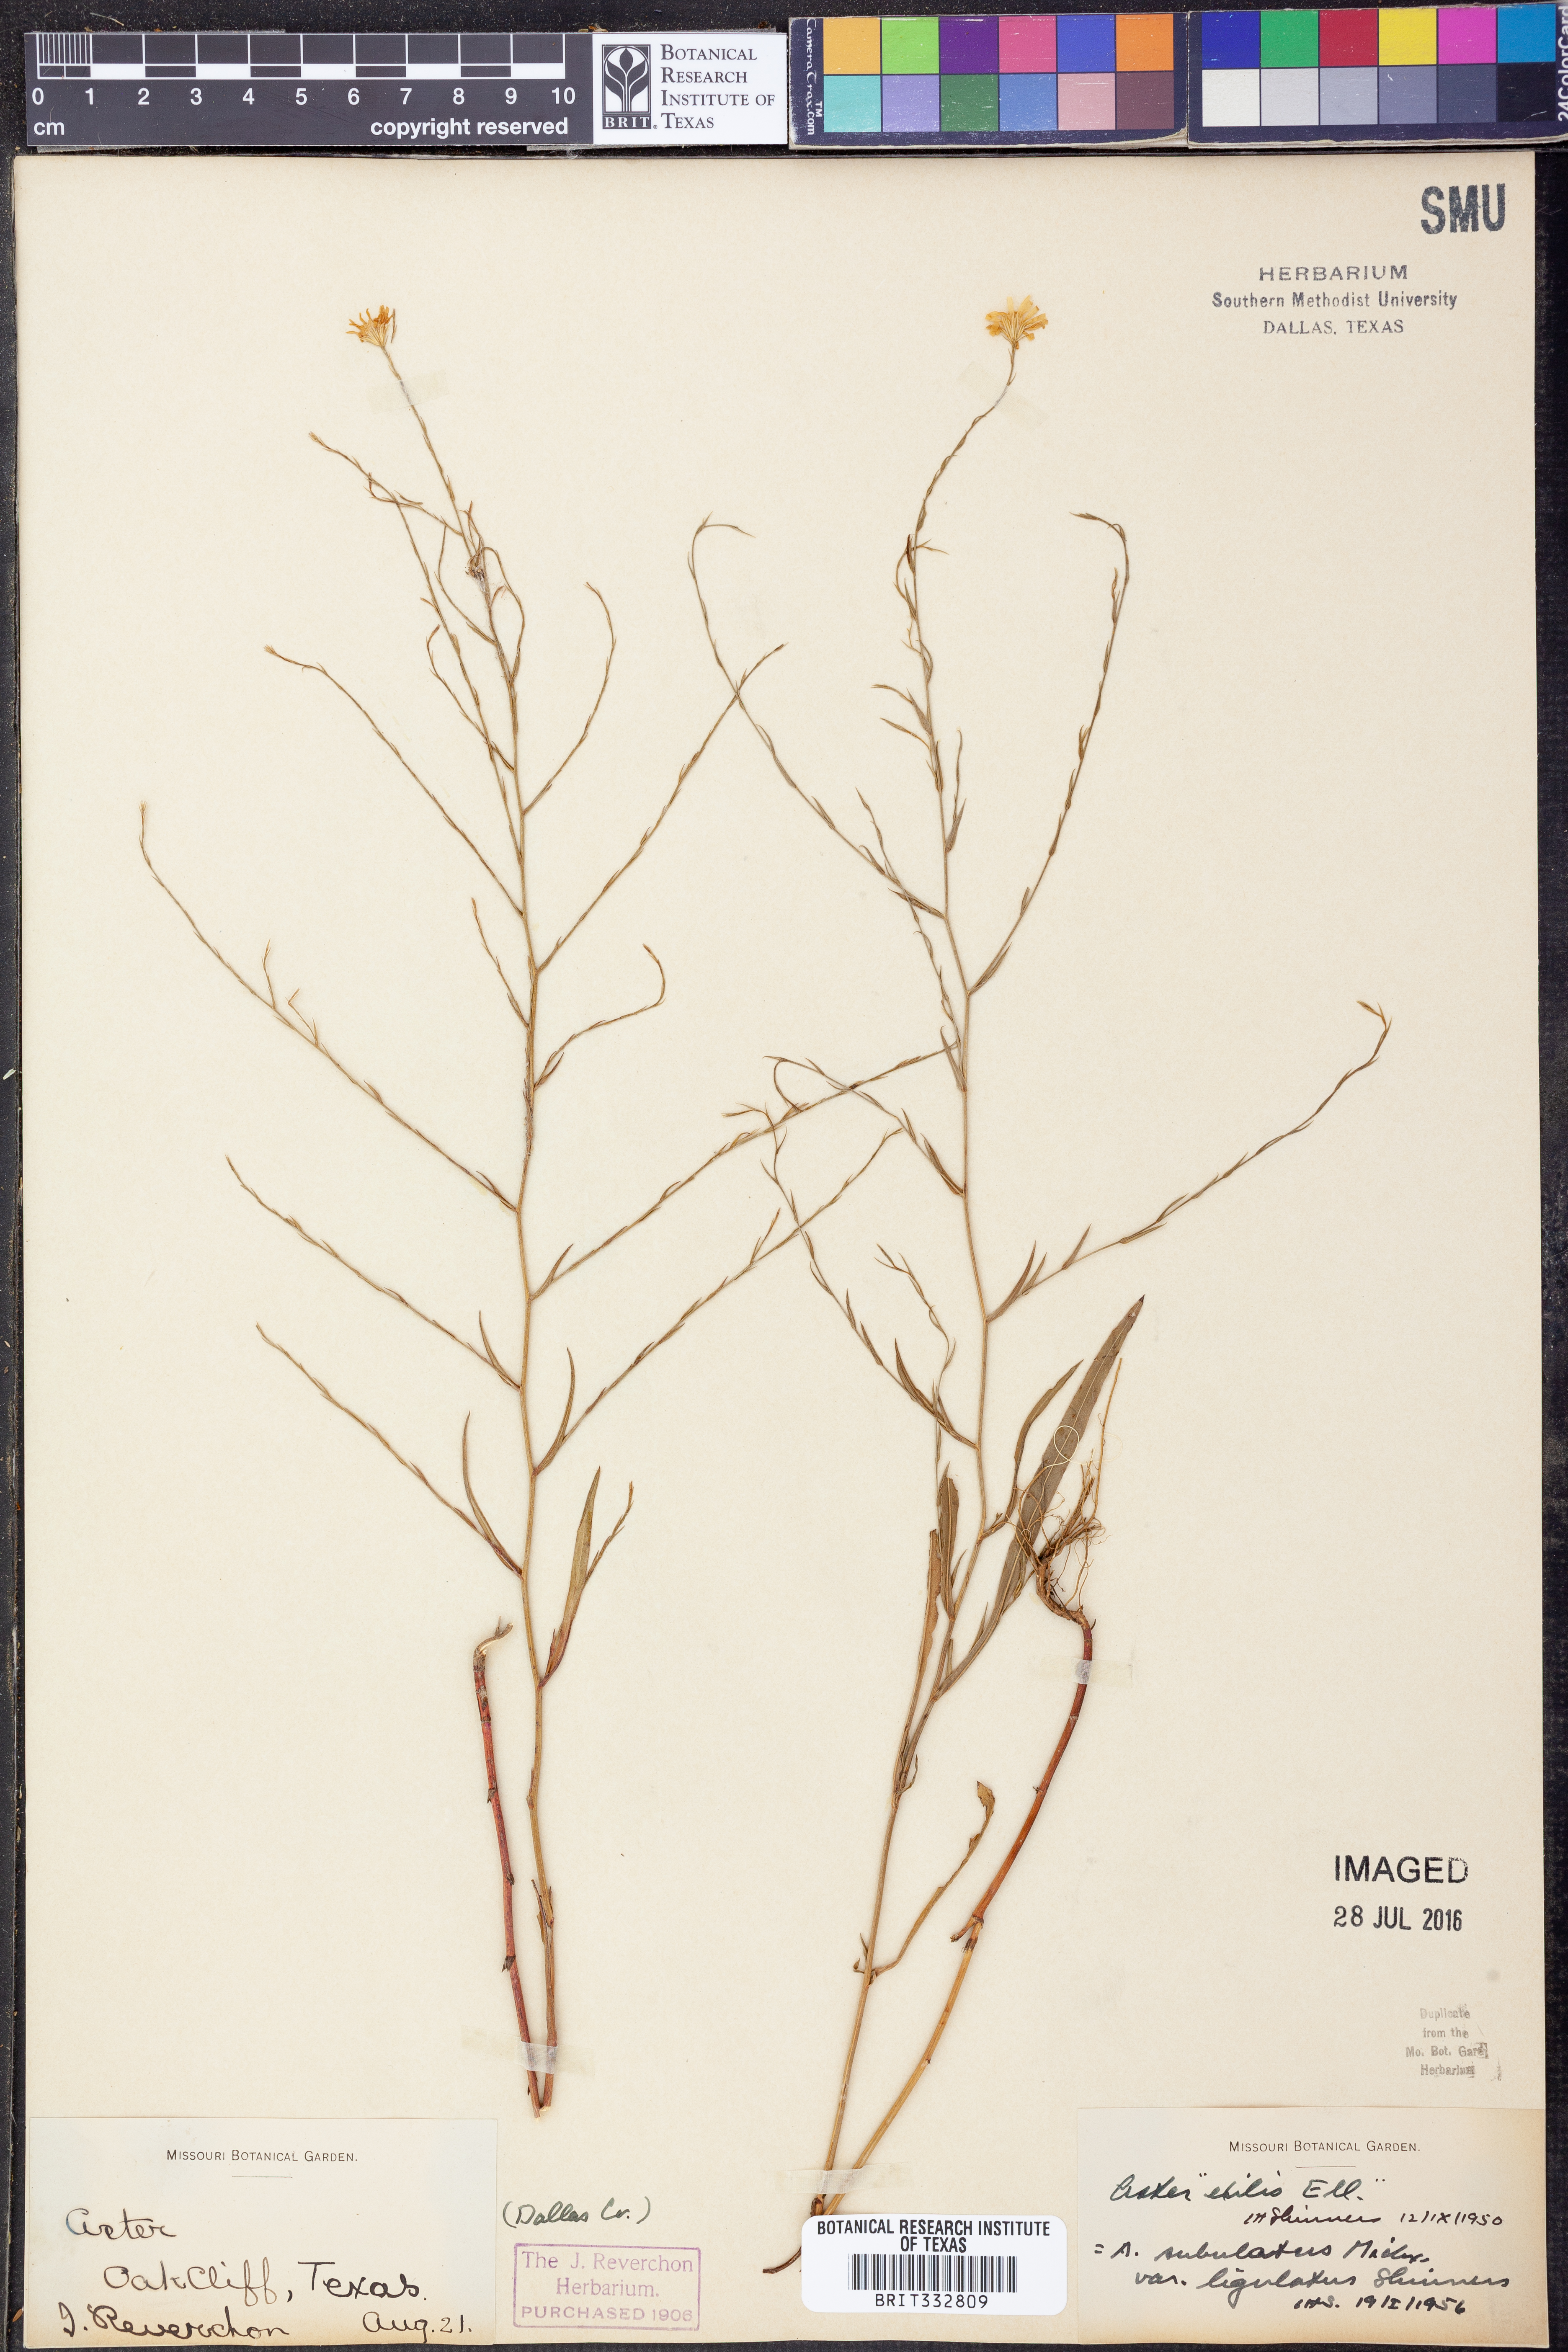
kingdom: Plantae
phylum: Tracheophyta
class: Magnoliopsida
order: Asterales
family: Asteraceae
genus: Symphyotrichum
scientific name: Symphyotrichum divaricatum
